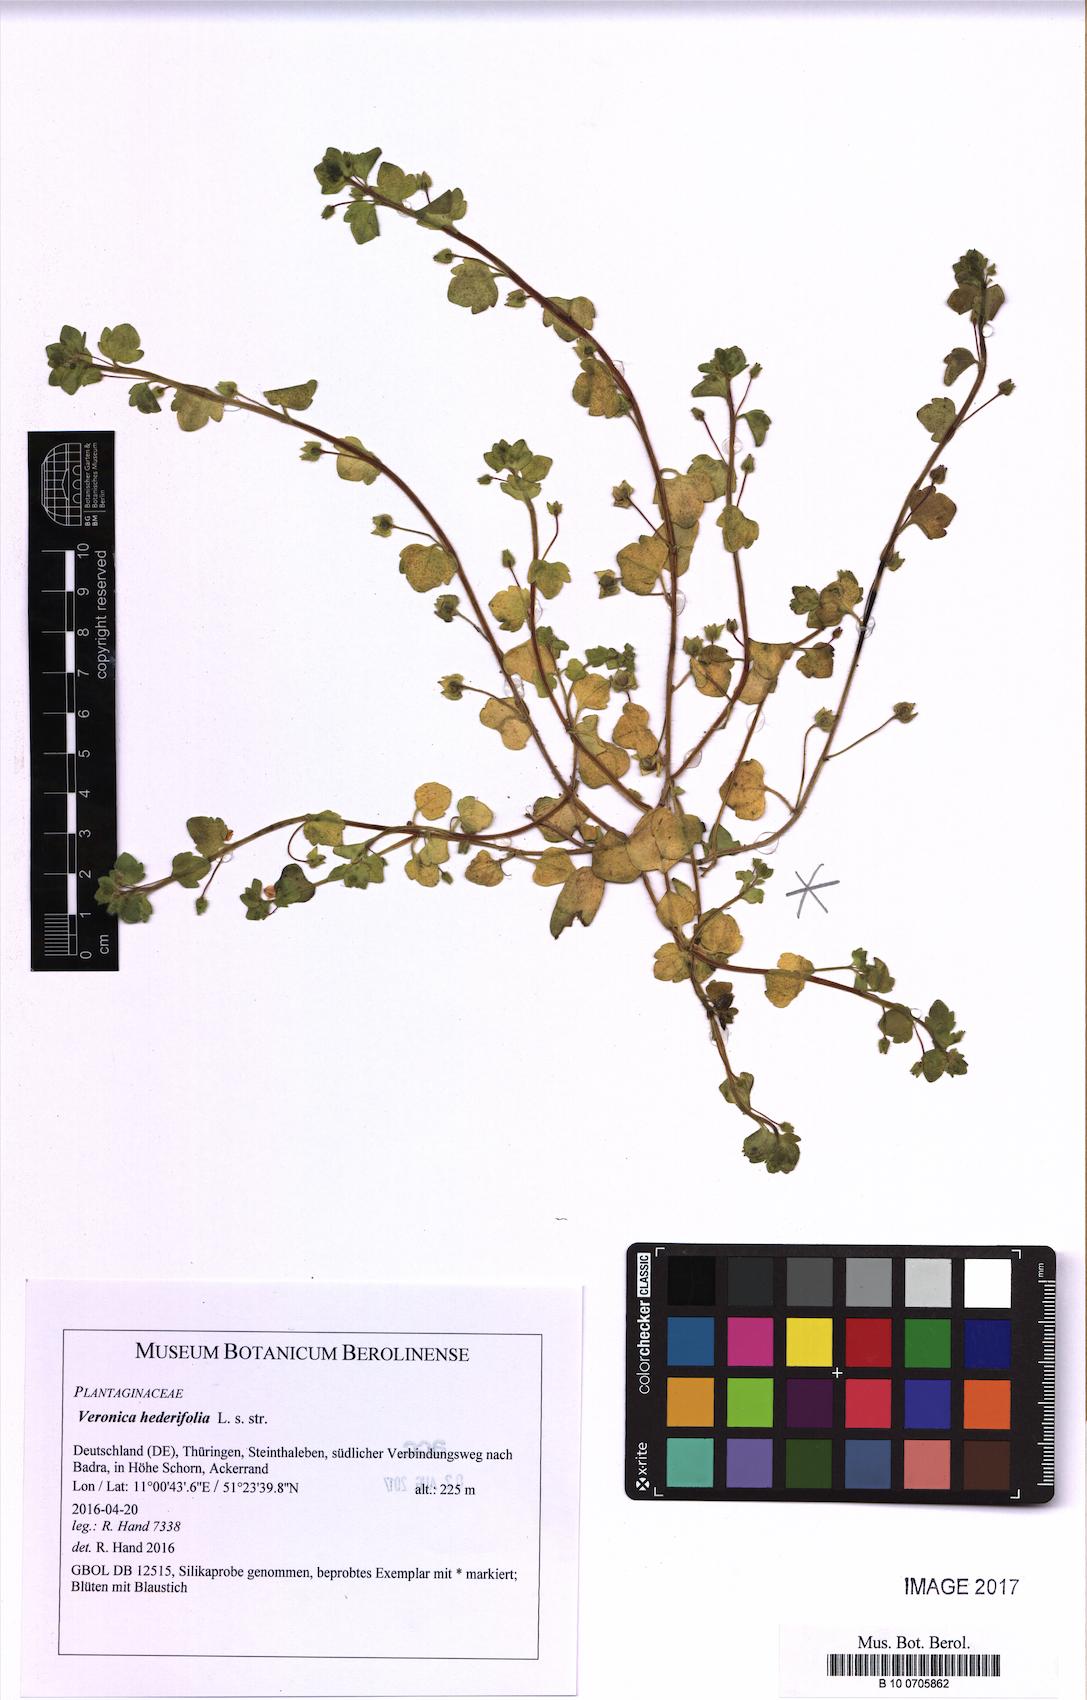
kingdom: Plantae
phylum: Tracheophyta
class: Magnoliopsida
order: Lamiales
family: Plantaginaceae
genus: Veronica
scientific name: Veronica hederifolia
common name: Ivy-leaved speedwell
